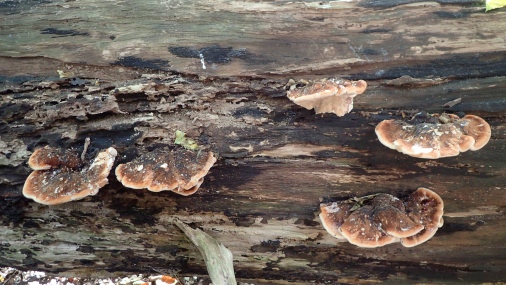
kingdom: Fungi
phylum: Basidiomycota
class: Agaricomycetes
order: Polyporales
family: Ischnodermataceae
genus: Ischnoderma
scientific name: Ischnoderma resinosum
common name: løv-tjæreporesvamp
